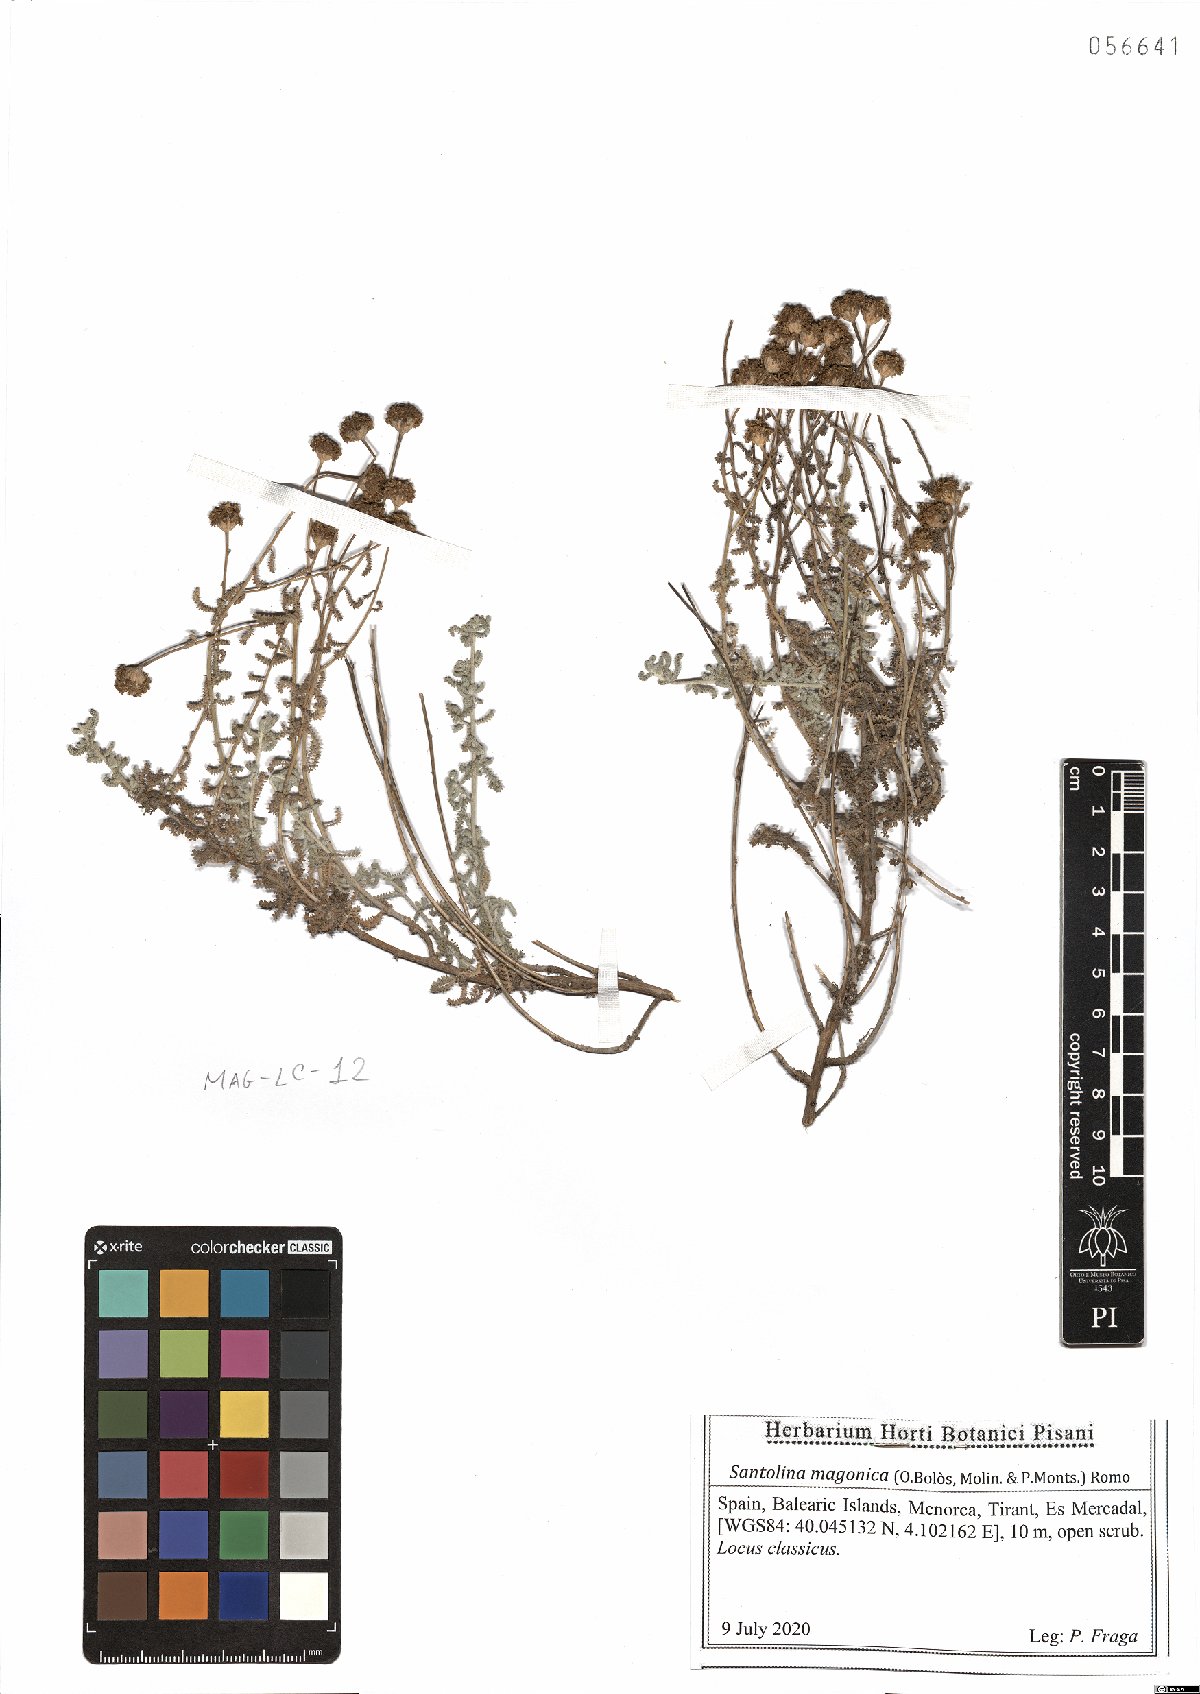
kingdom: Plantae
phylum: Tracheophyta
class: Magnoliopsida
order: Asterales
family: Asteraceae
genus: Santolina
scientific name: Santolina magonica
